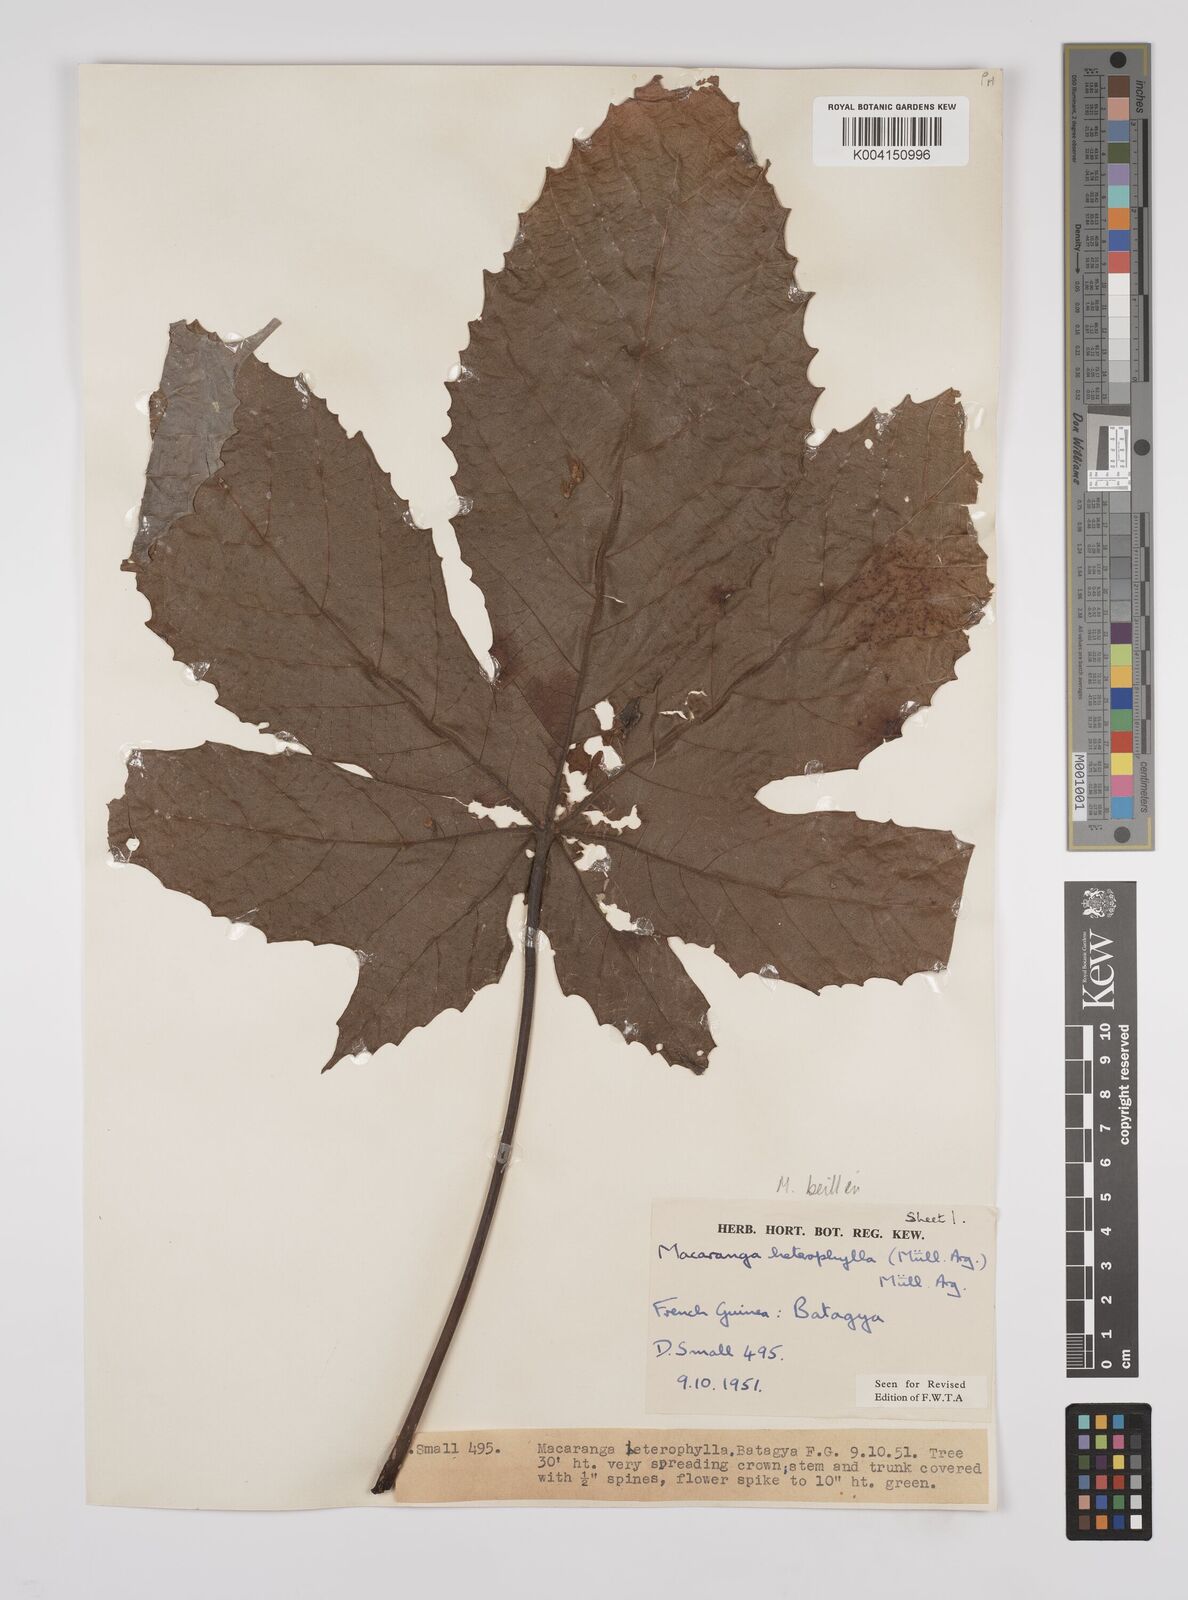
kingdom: Plantae
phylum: Tracheophyta
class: Magnoliopsida
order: Malpighiales
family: Euphorbiaceae
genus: Macaranga
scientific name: Macaranga beillei
